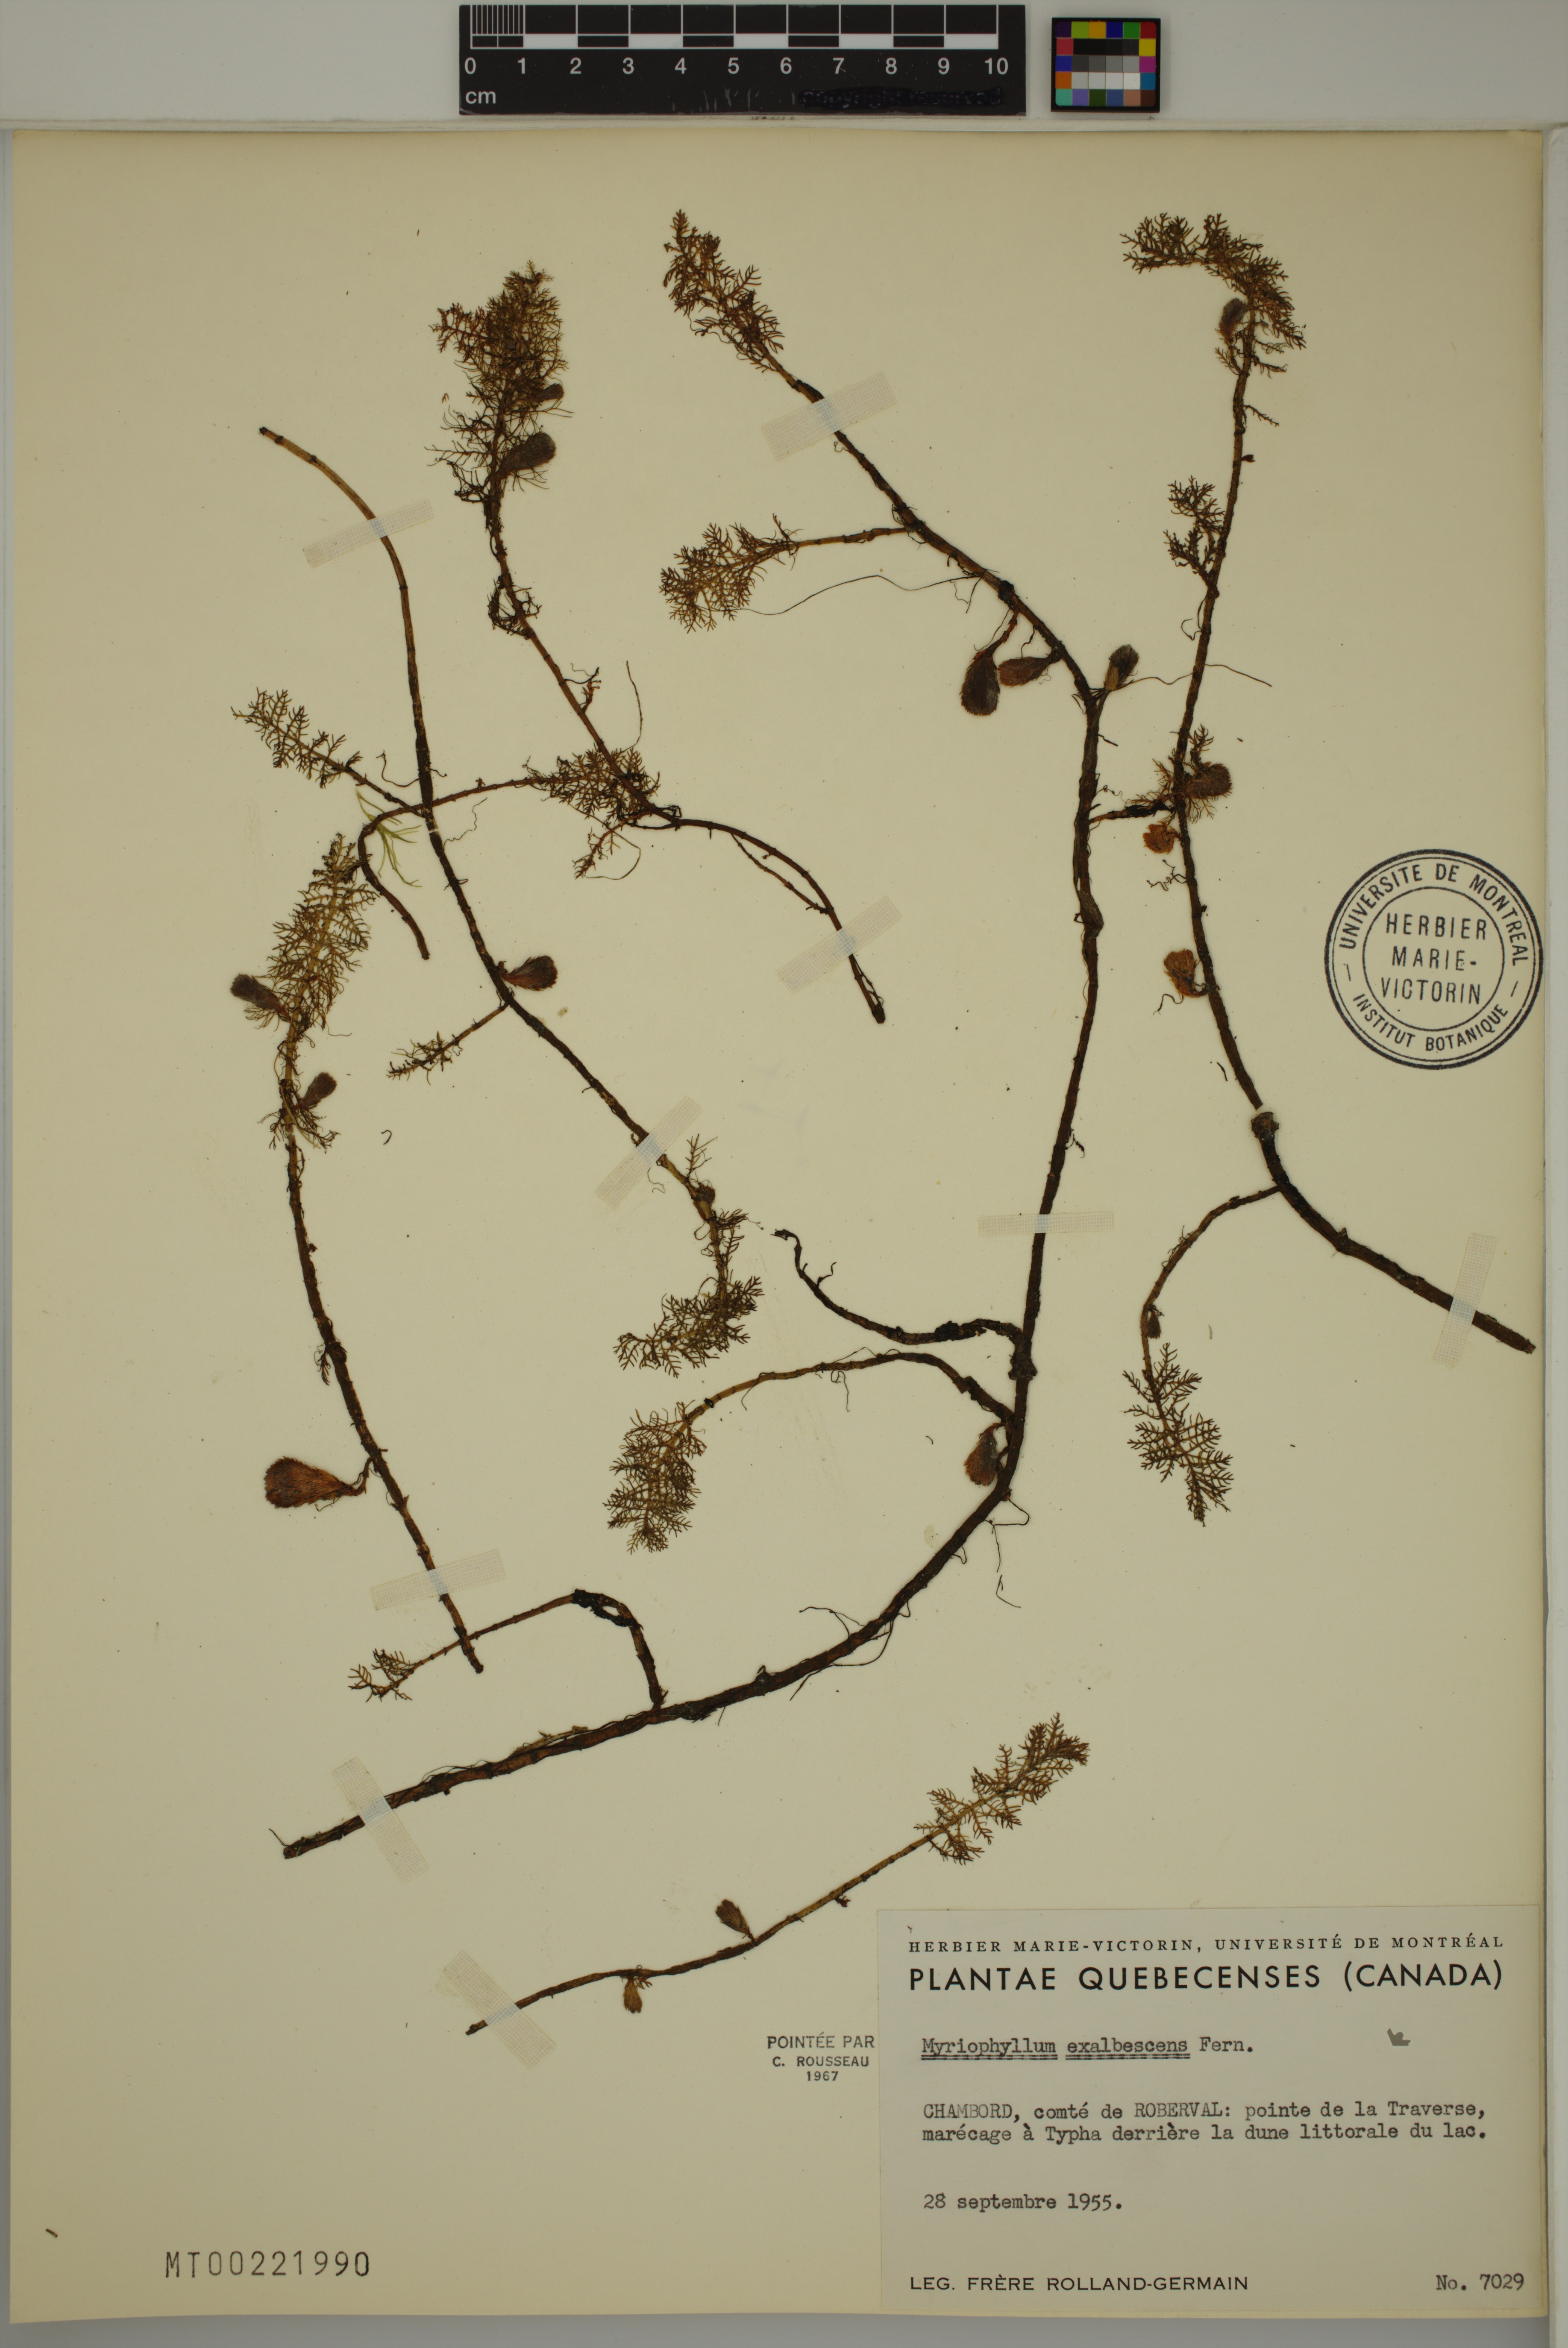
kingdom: Plantae
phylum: Tracheophyta
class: Magnoliopsida
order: Saxifragales
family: Haloragaceae
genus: Myriophyllum
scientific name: Myriophyllum sibiricum
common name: Siberian water-milfoil
